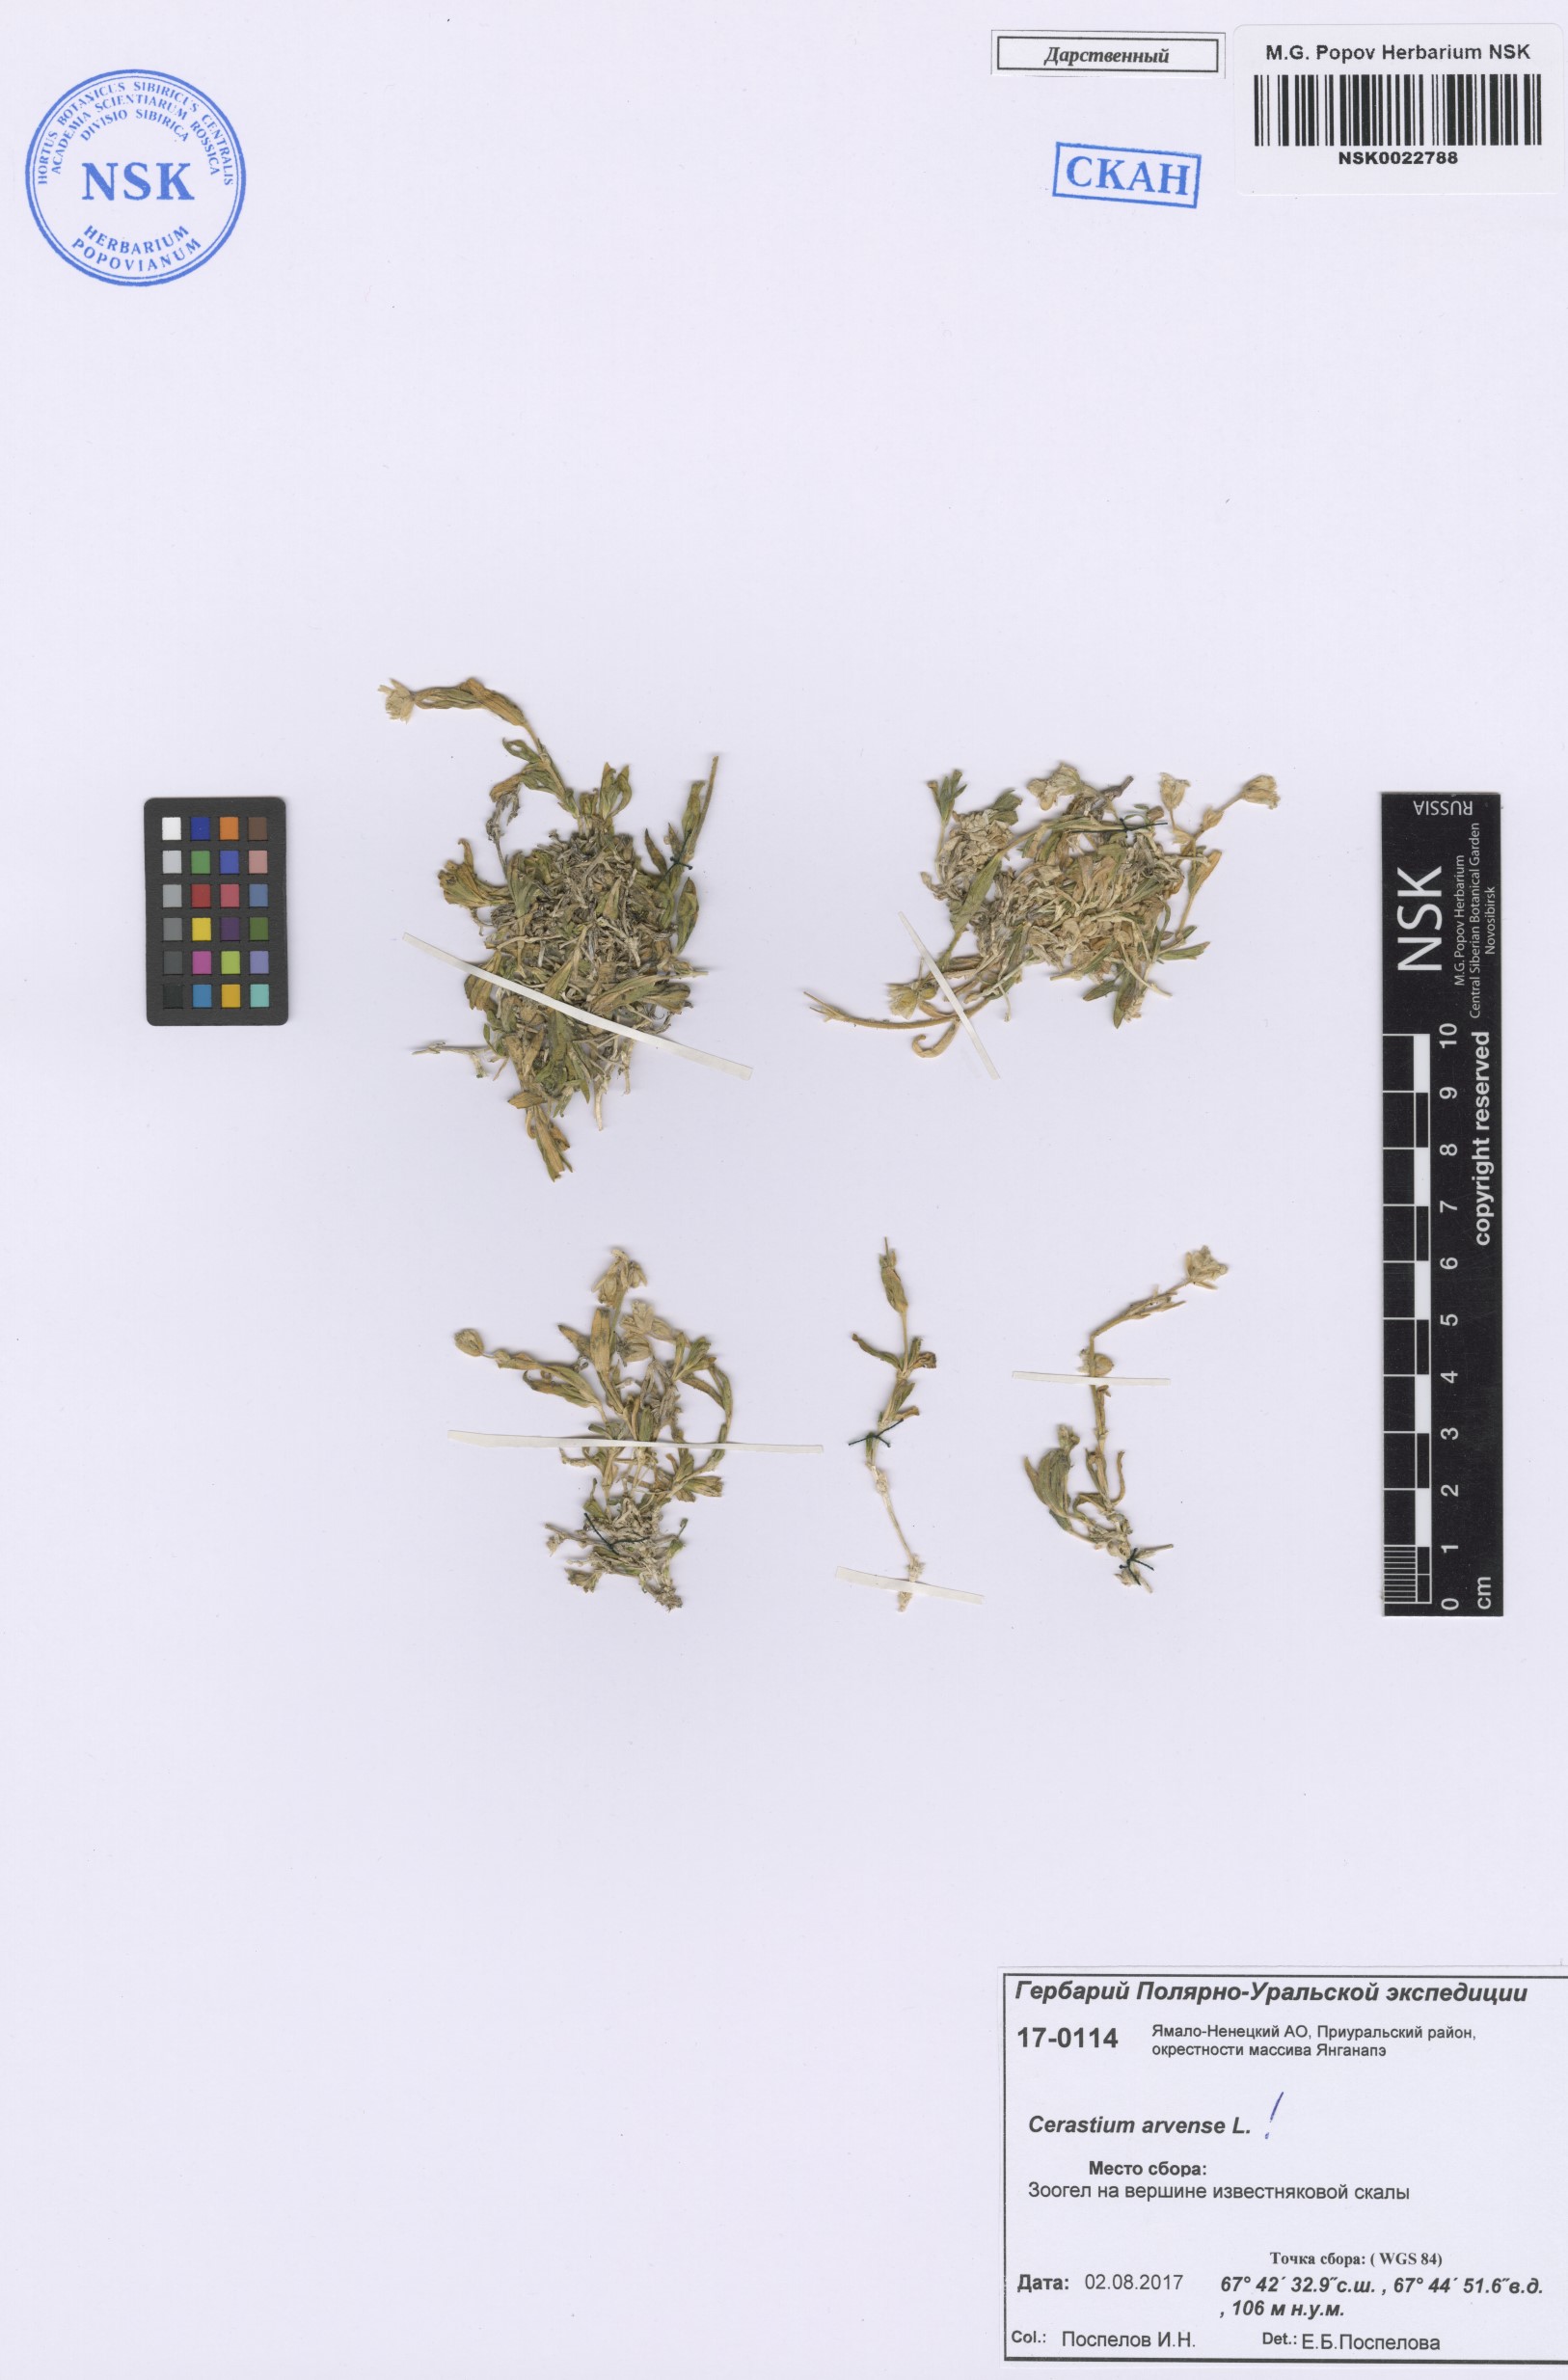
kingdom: Plantae
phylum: Tracheophyta
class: Magnoliopsida
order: Caryophyllales
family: Caryophyllaceae
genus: Cerastium
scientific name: Cerastium arvense
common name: Field mouse-ear
